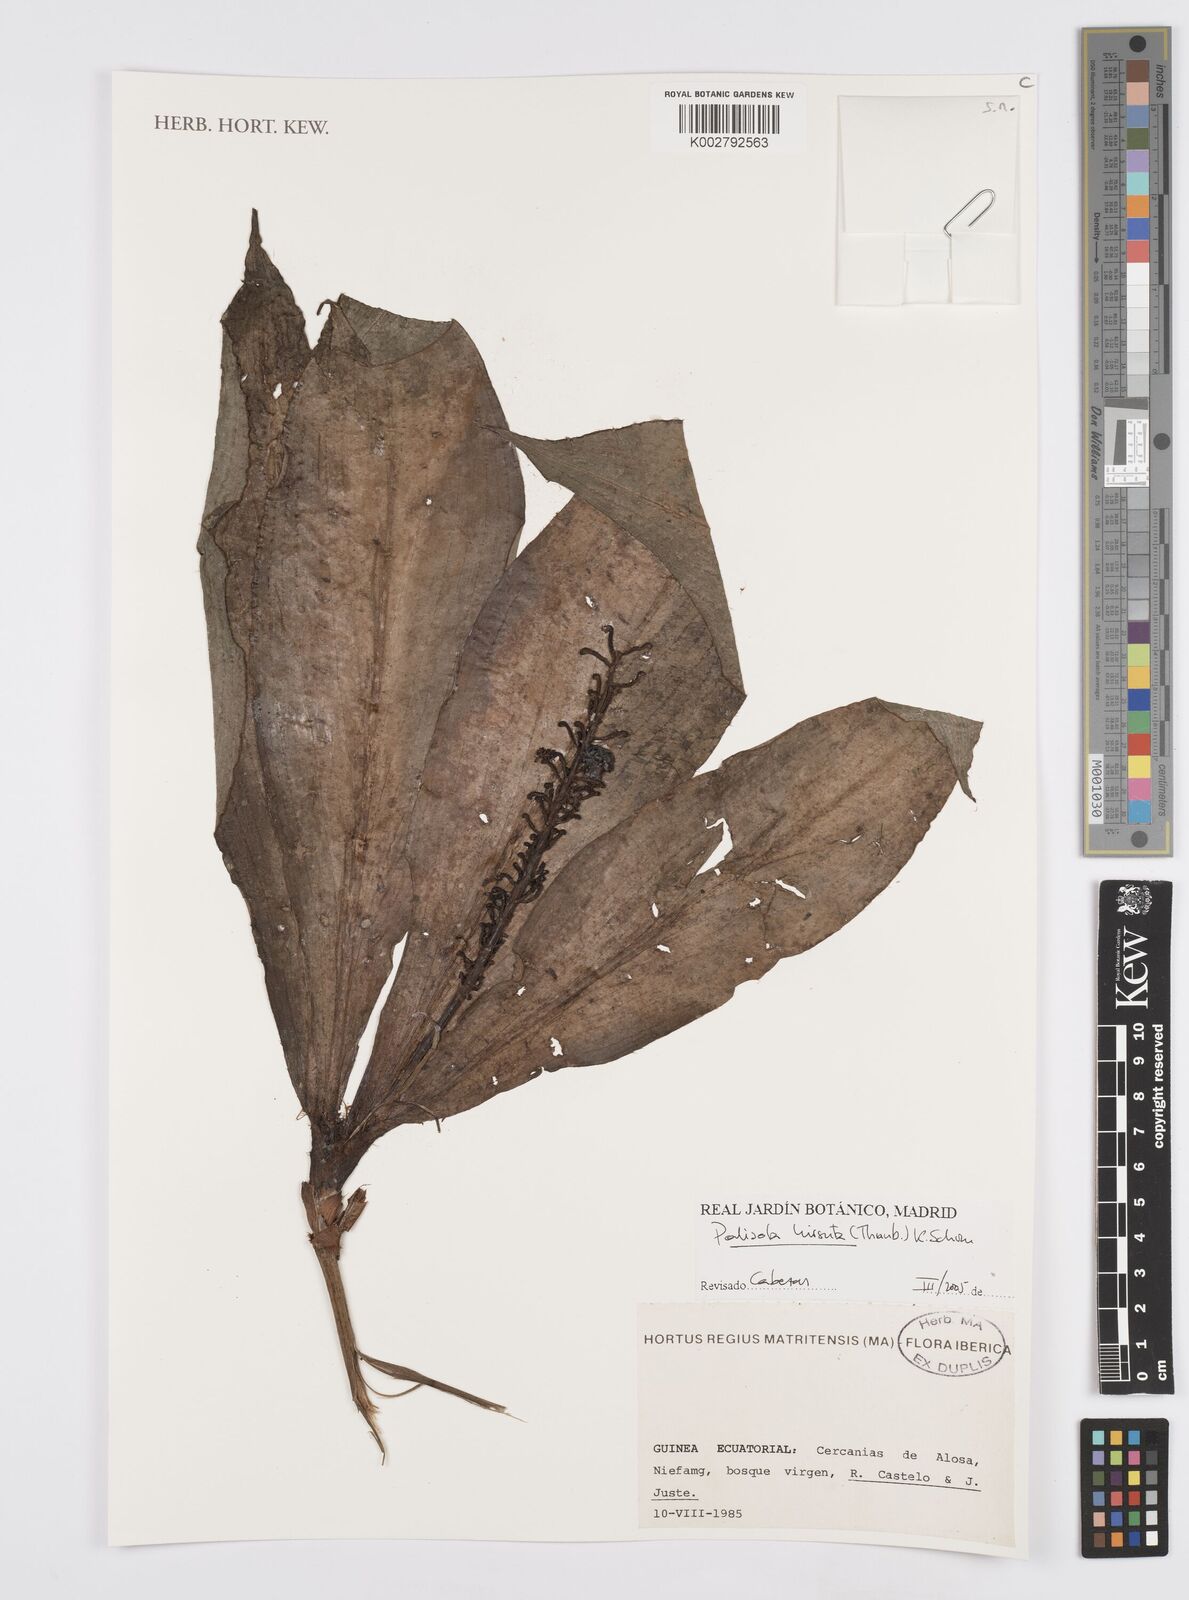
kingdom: Plantae
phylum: Tracheophyta
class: Liliopsida
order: Commelinales
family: Commelinaceae
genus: Palisota
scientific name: Palisota hirsuta
